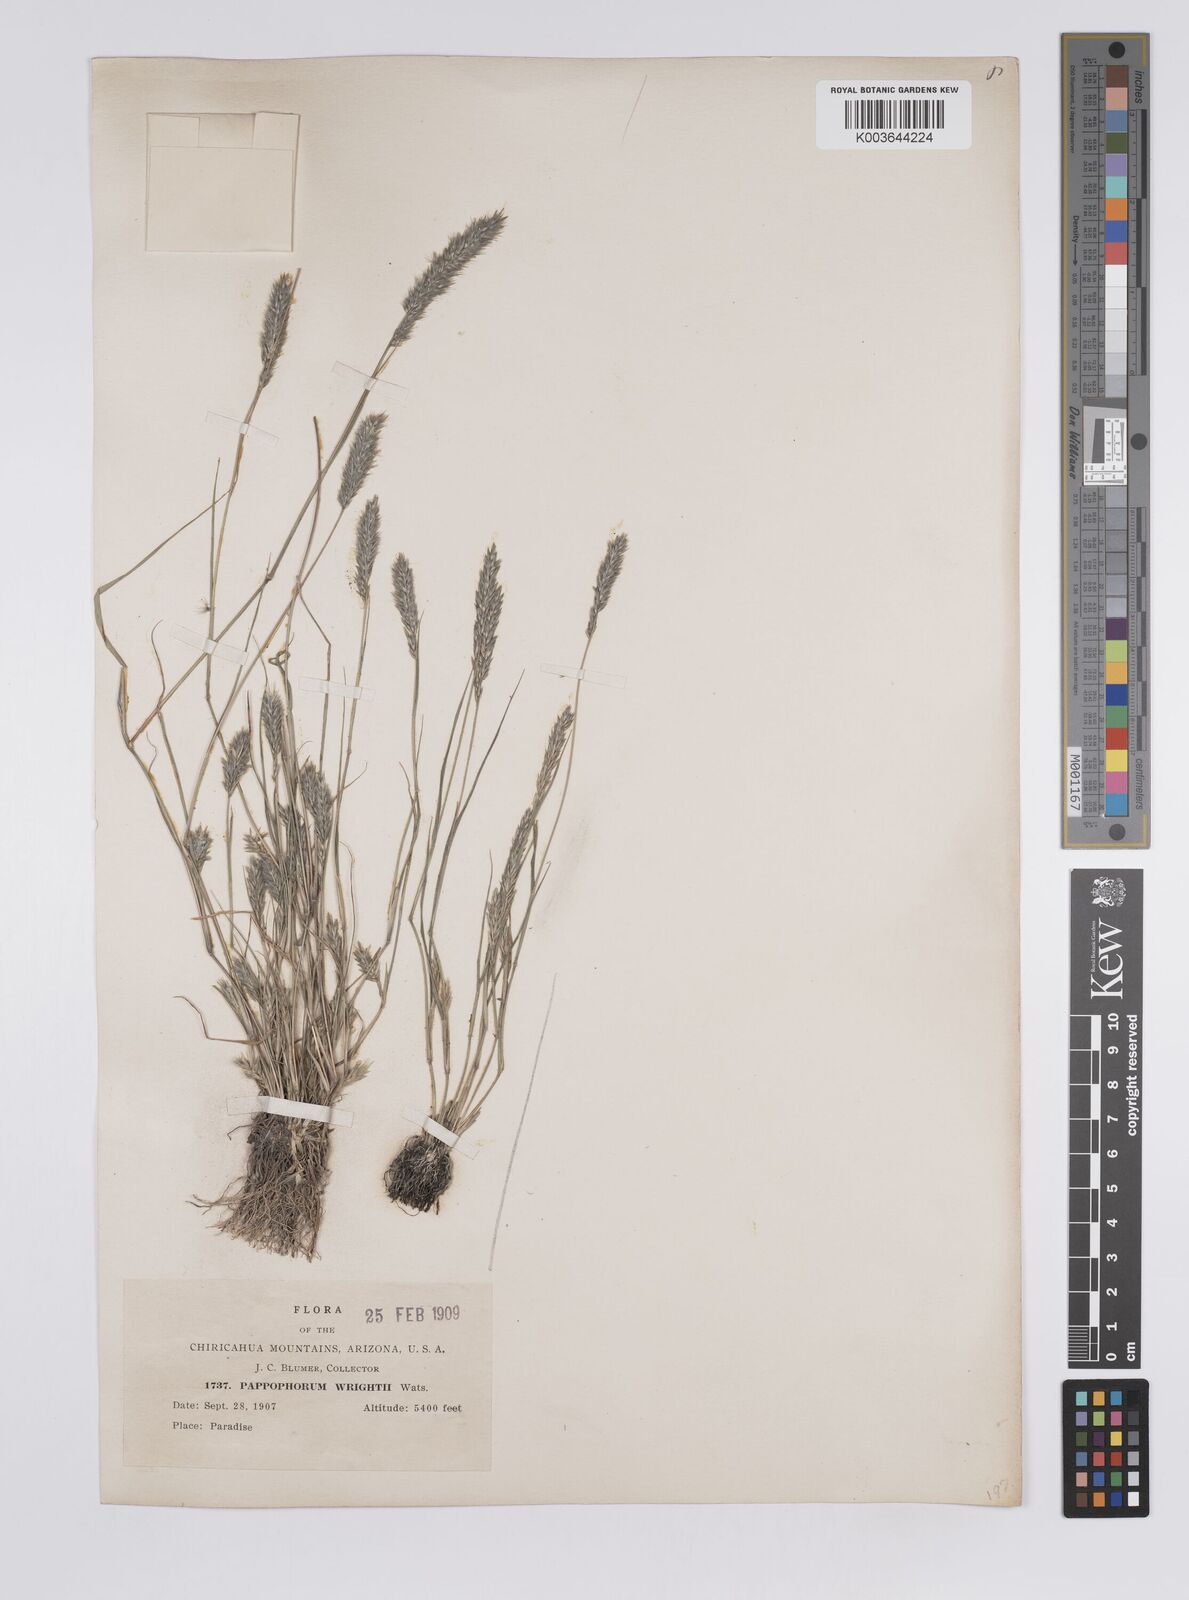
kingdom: Plantae
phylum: Tracheophyta
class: Liliopsida
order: Poales
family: Poaceae
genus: Enneapogon
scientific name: Enneapogon desvauxii
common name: Feather pappus grass
